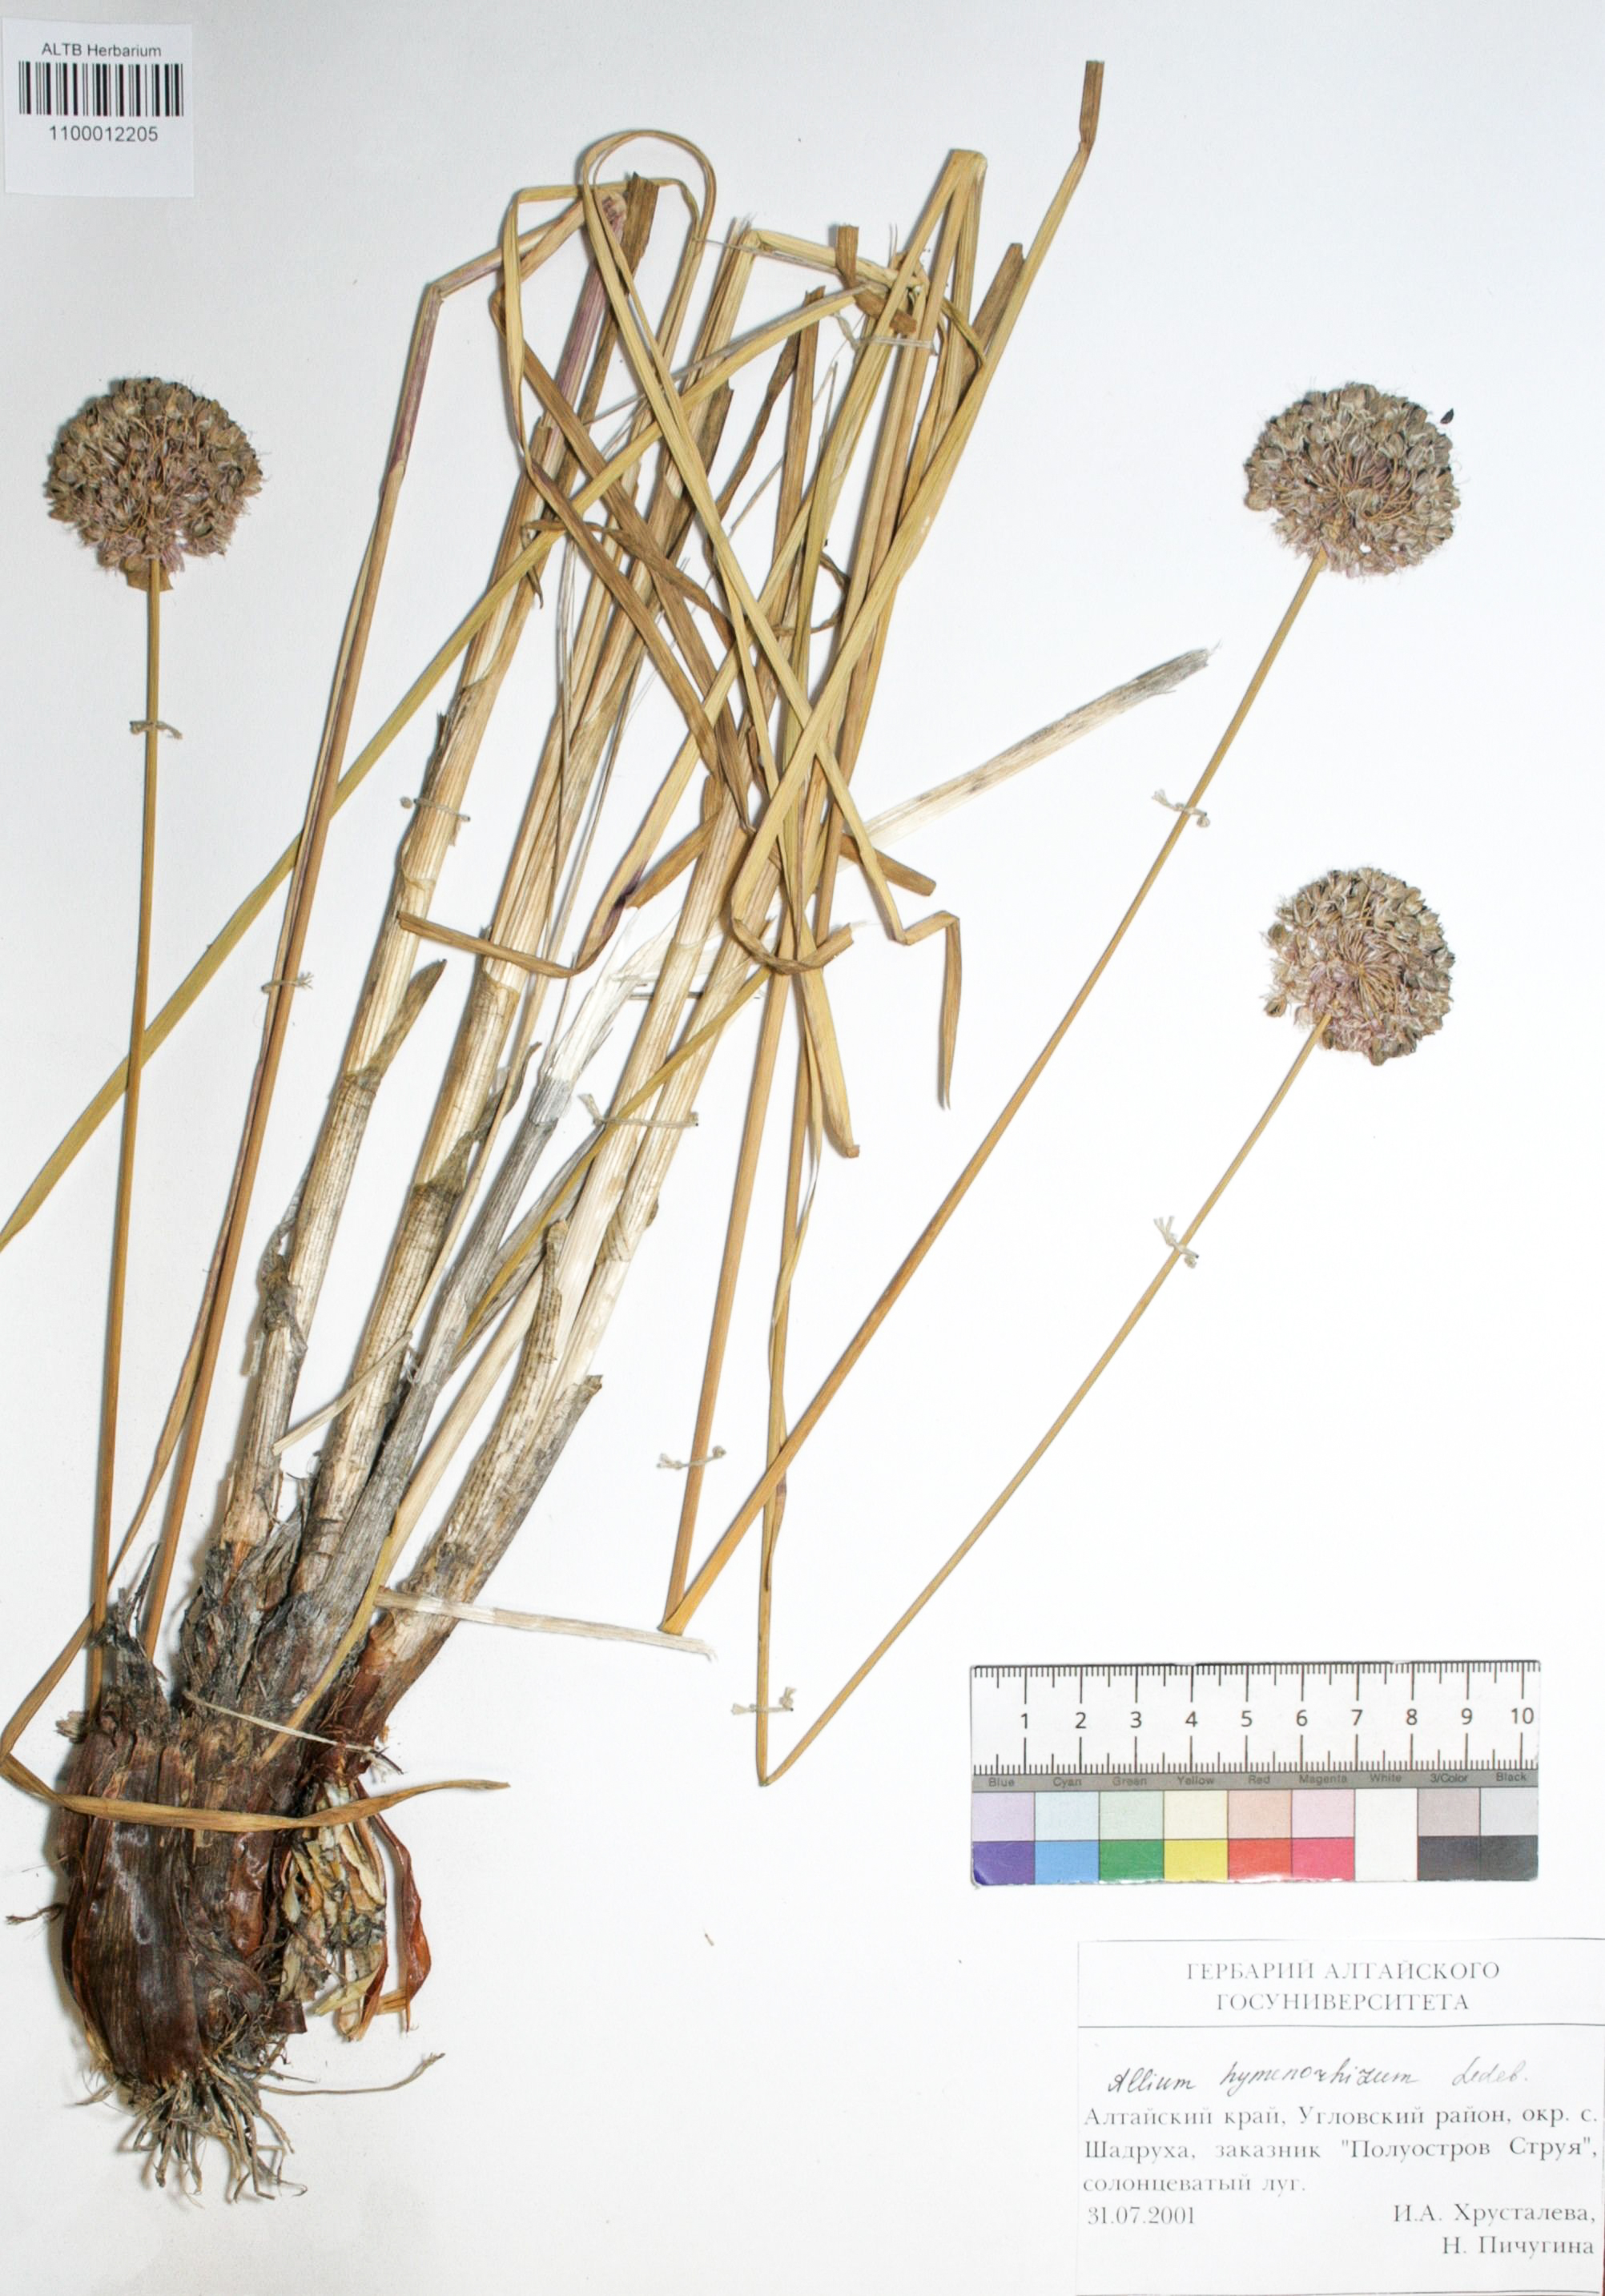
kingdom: Plantae
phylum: Tracheophyta
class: Liliopsida
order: Asparagales
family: Amaryllidaceae
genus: Allium
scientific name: Allium hymenorhizum
